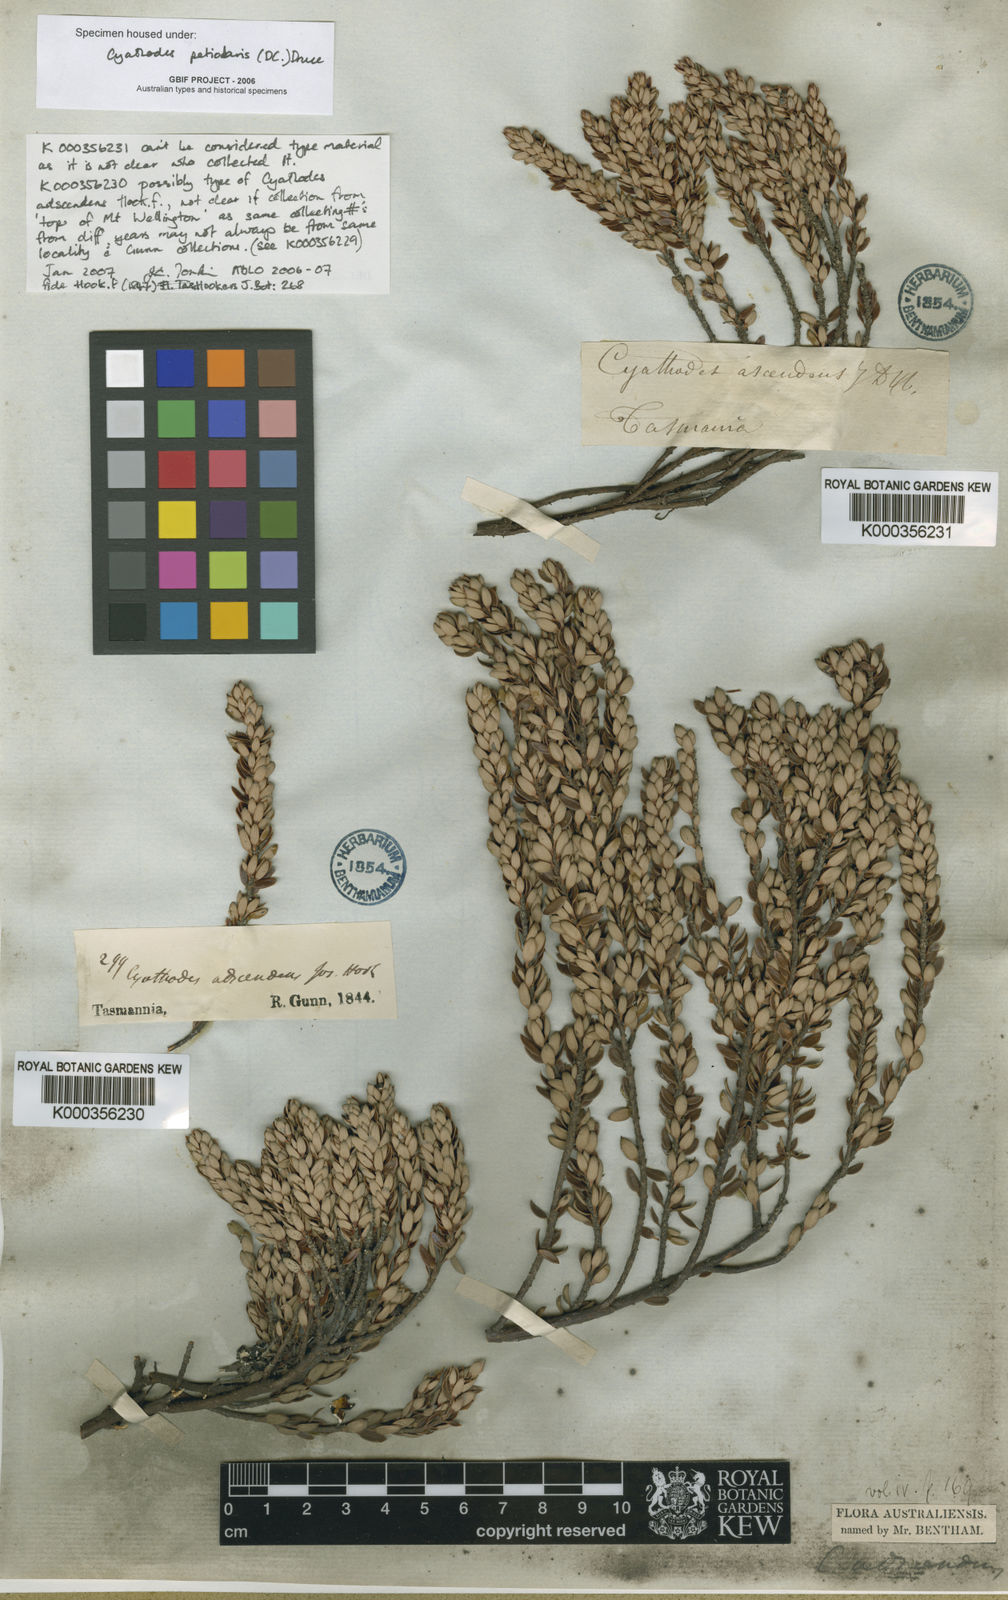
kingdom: Plantae
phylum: Tracheophyta
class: Magnoliopsida
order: Ericales
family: Ericaceae
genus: Planocarpa
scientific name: Planocarpa petiolaris
